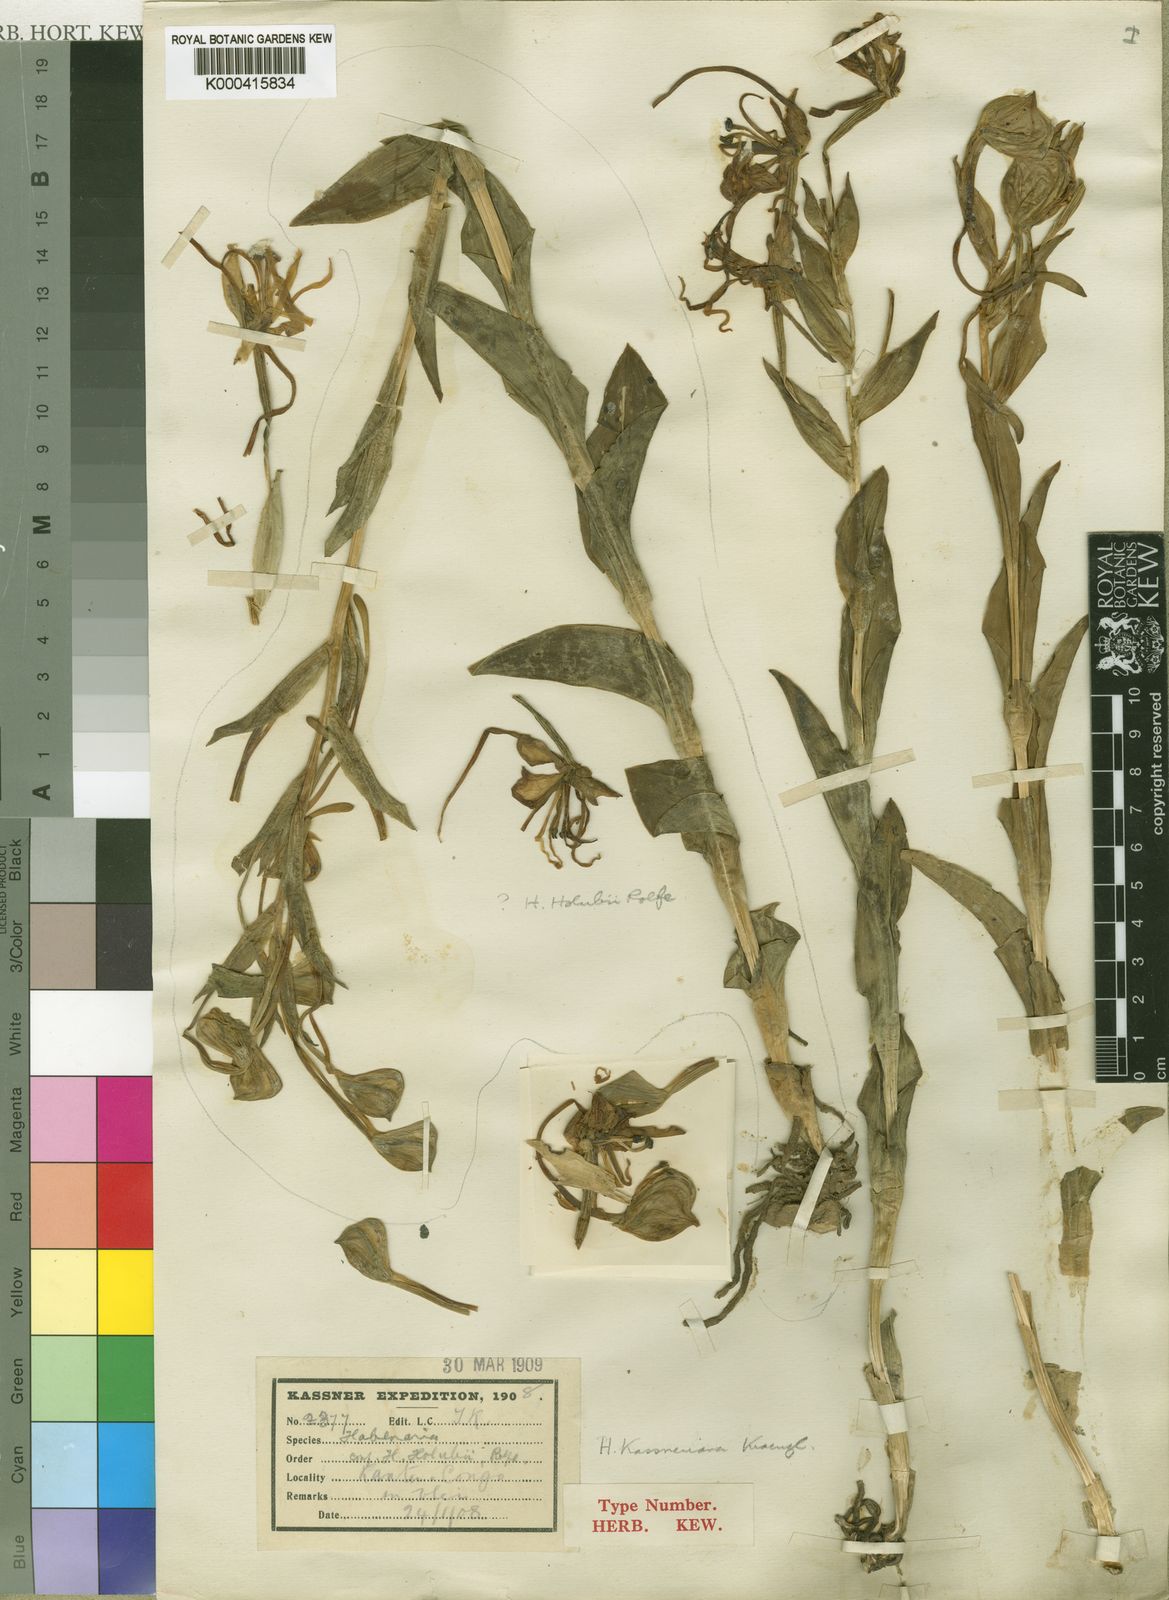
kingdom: Plantae
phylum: Tracheophyta
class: Liliopsida
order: Asparagales
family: Orchidaceae
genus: Habenaria
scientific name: Habenaria kassneriana
